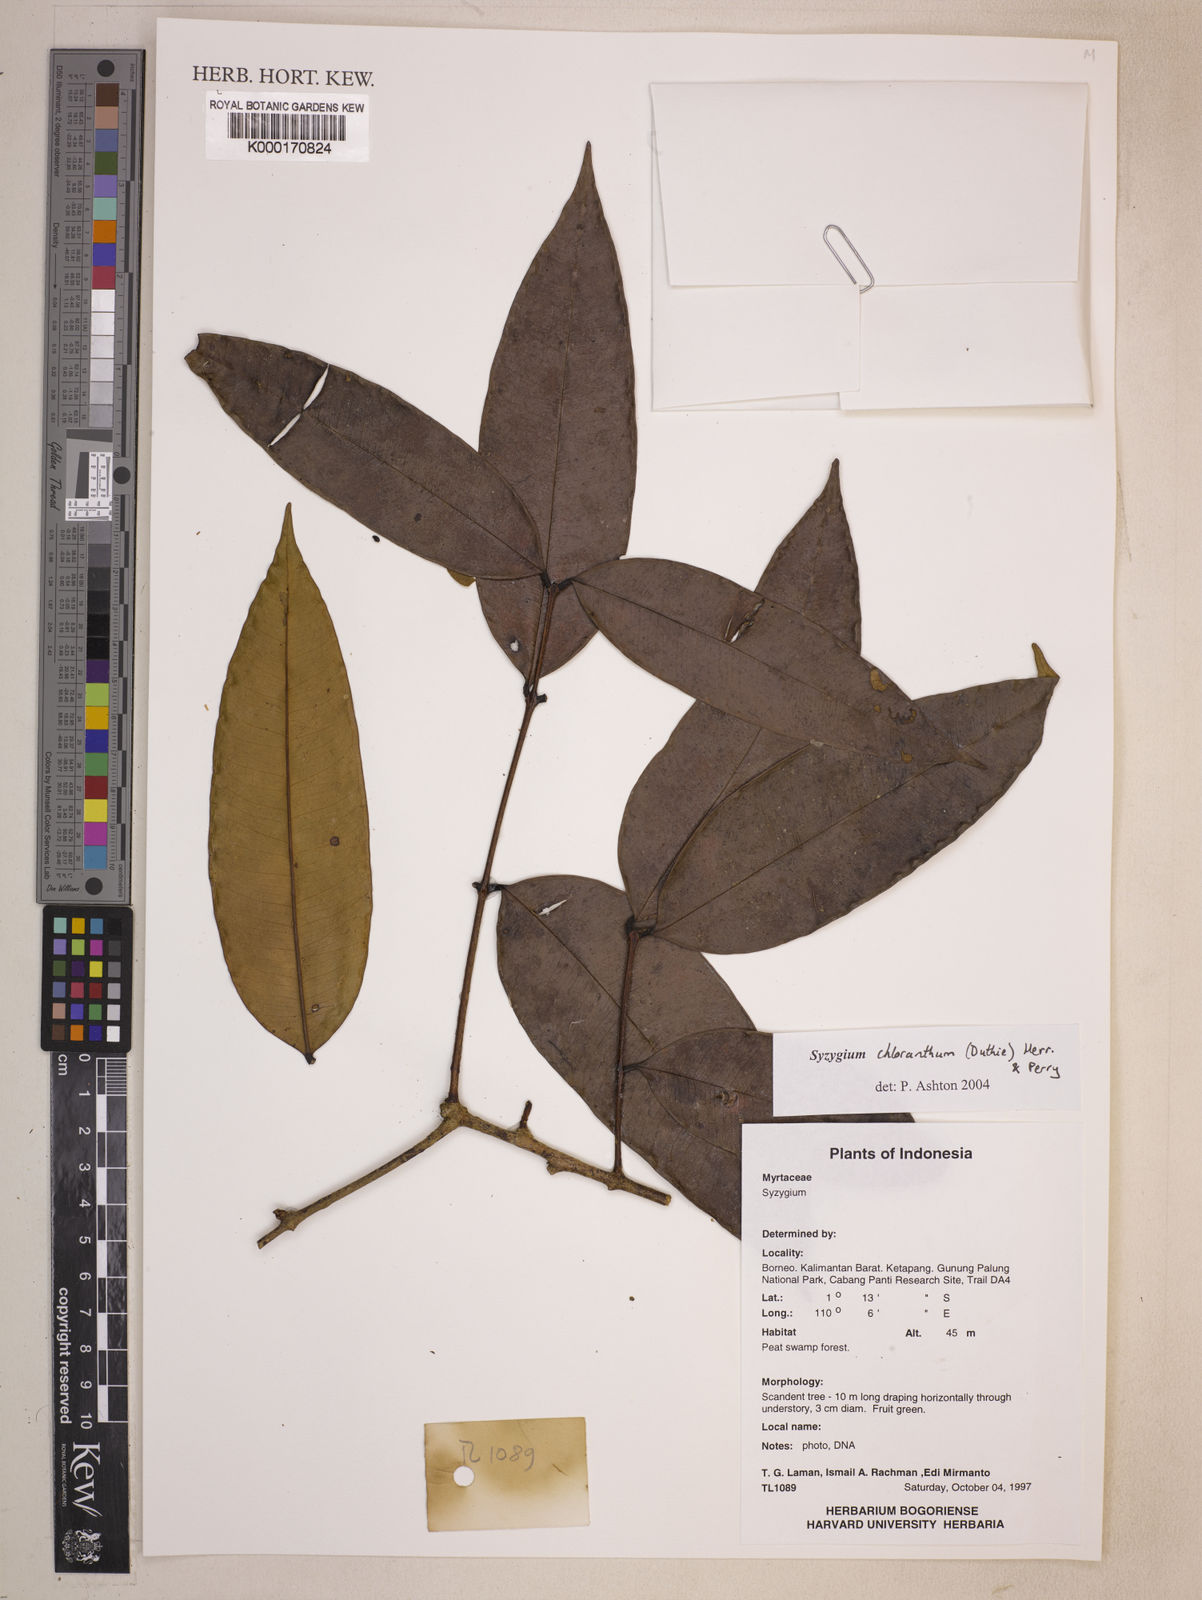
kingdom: Plantae
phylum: Tracheophyta
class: Magnoliopsida
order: Myrtales
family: Myrtaceae
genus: Syzygium
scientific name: Syzygium chloranthum
